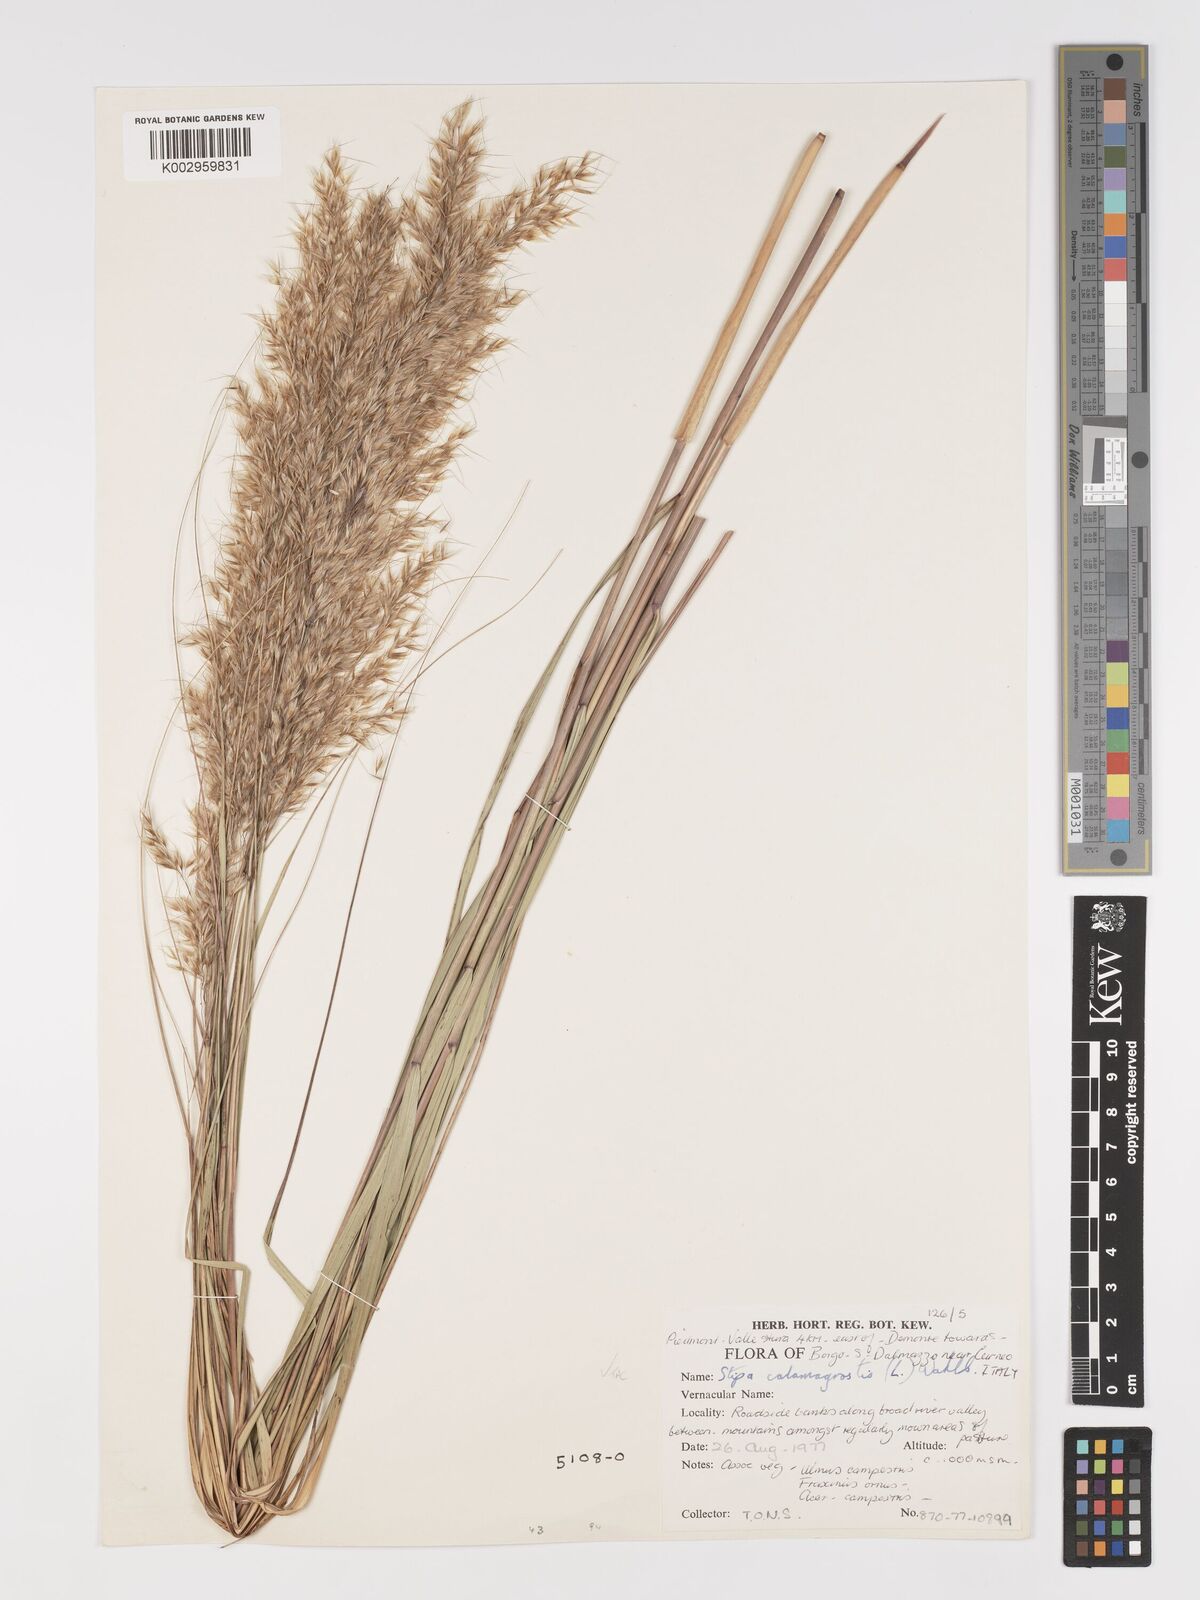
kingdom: Plantae
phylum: Tracheophyta
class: Liliopsida
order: Poales
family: Poaceae
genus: Achnatherum
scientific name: Achnatherum calamagrostis
